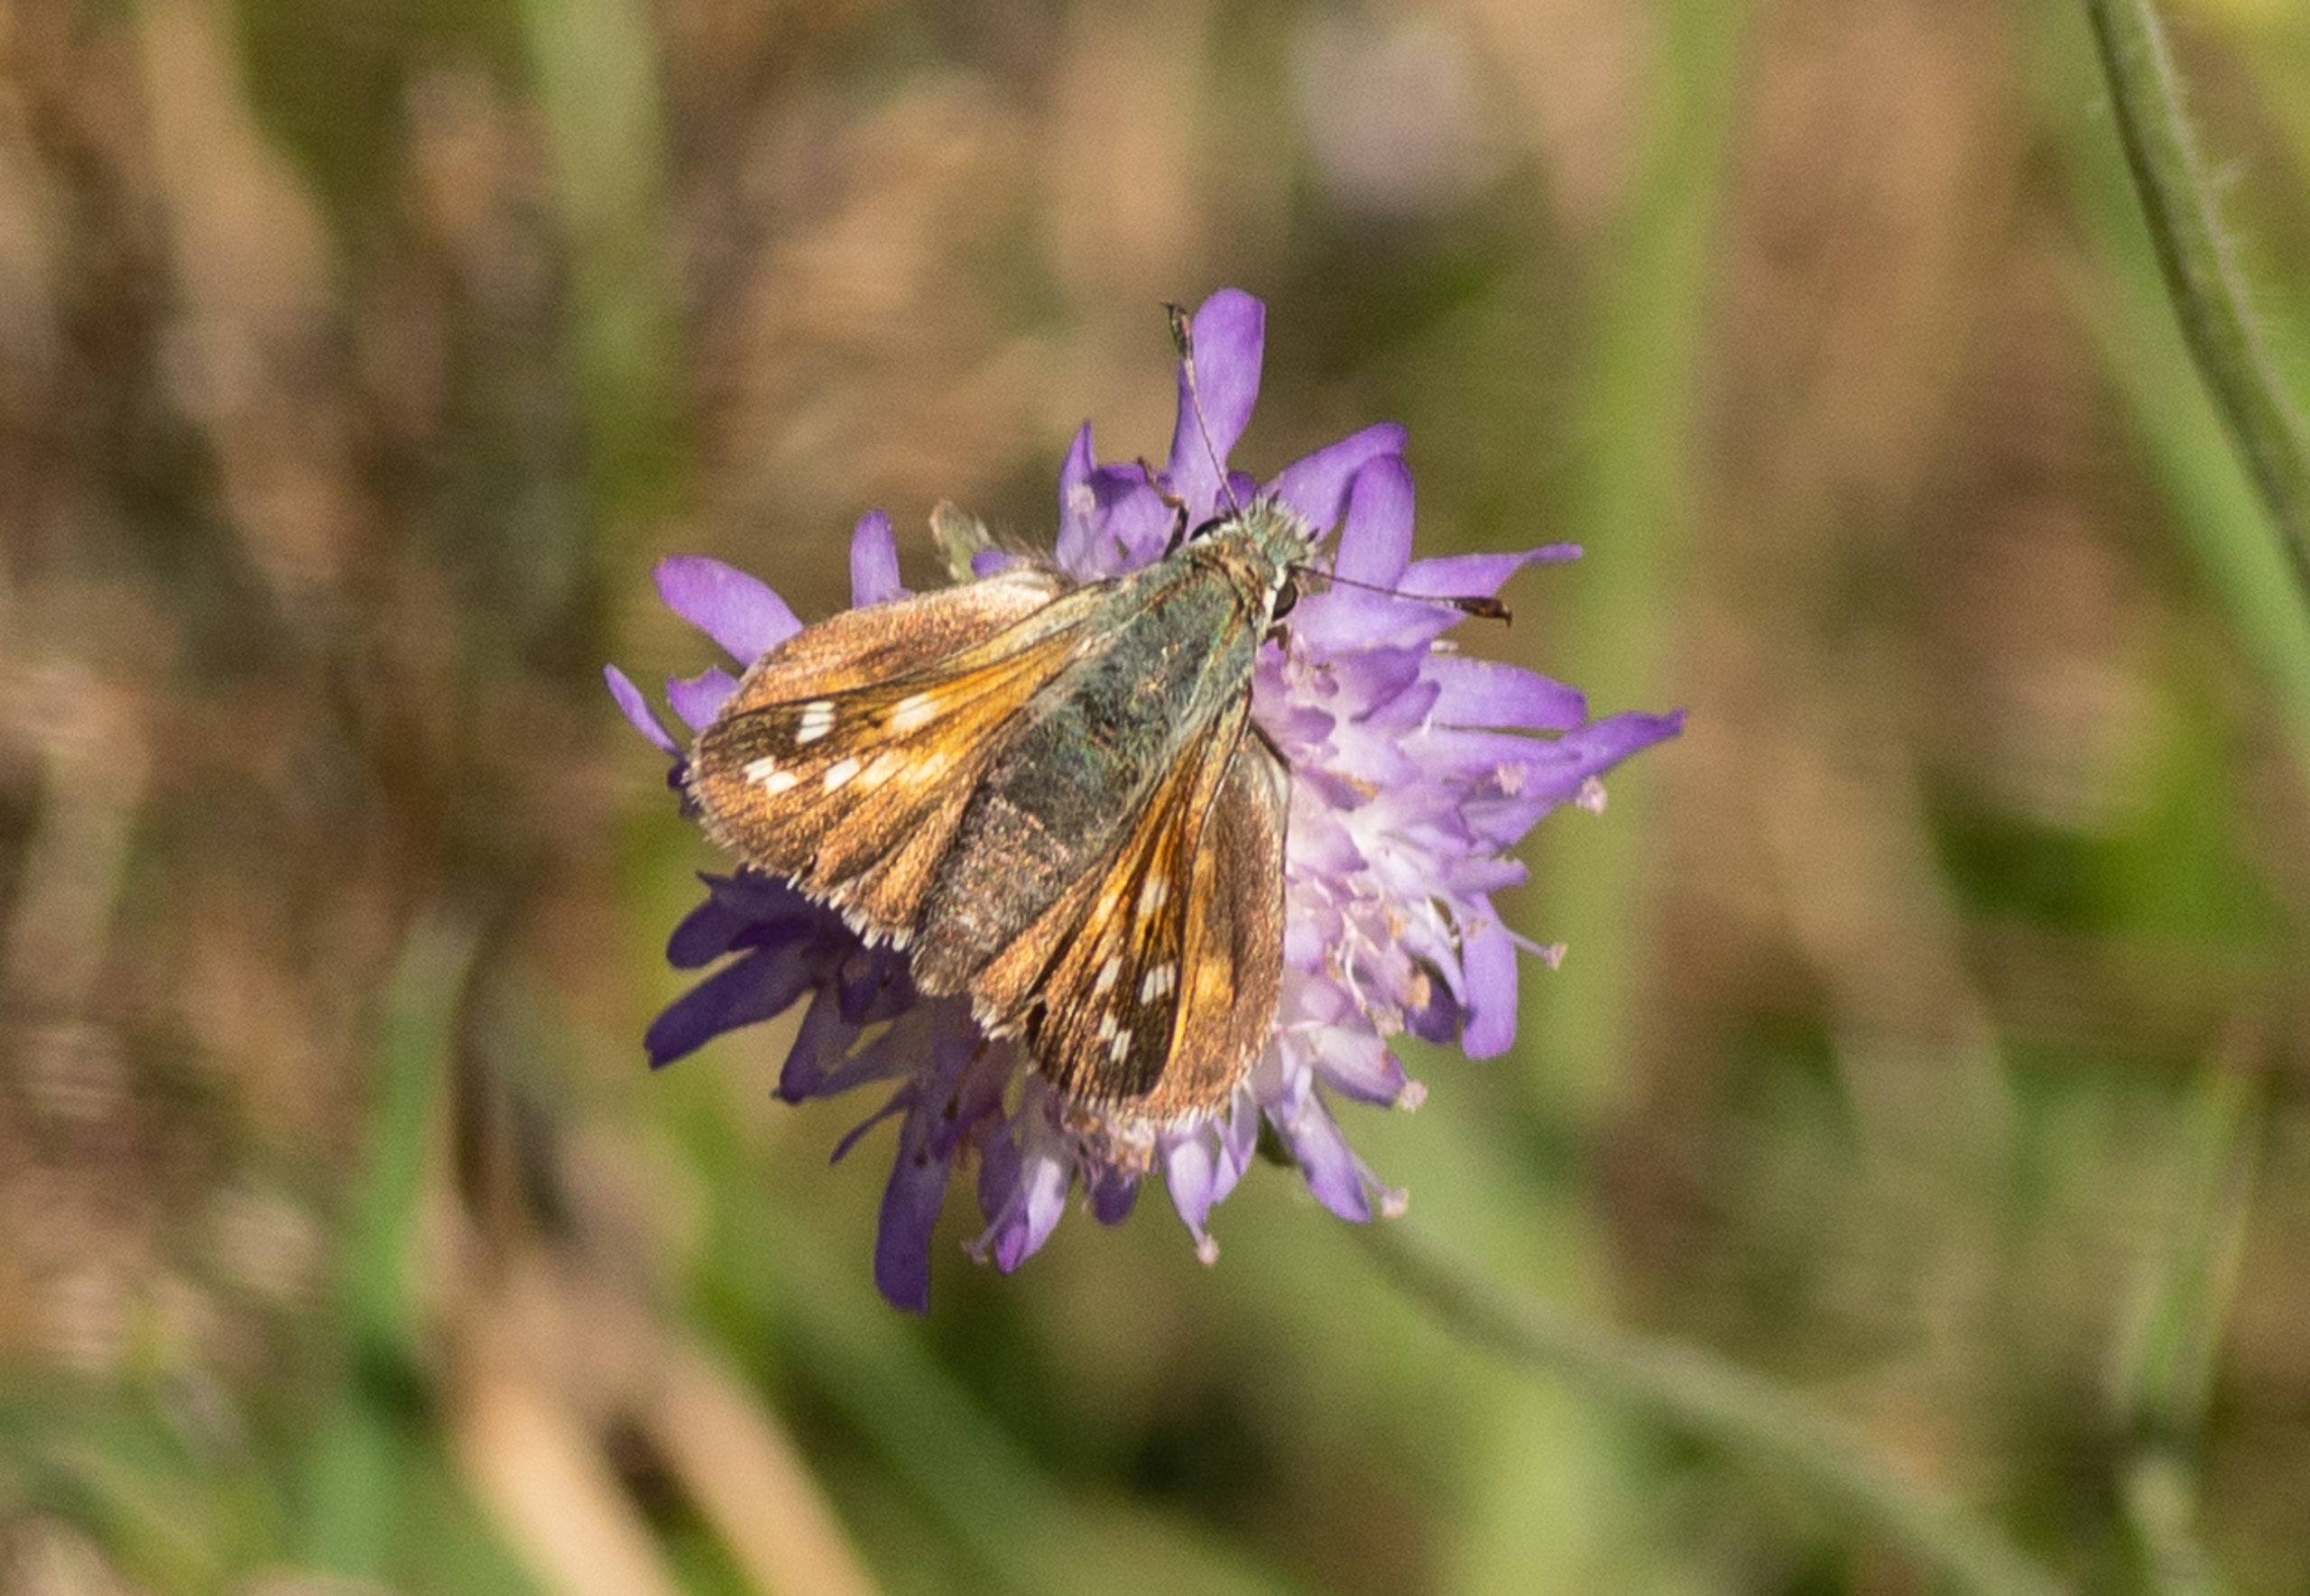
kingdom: Animalia
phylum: Arthropoda
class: Insecta
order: Lepidoptera
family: Hesperiidae
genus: Hesperia
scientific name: Hesperia comma
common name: Kommabredpande
